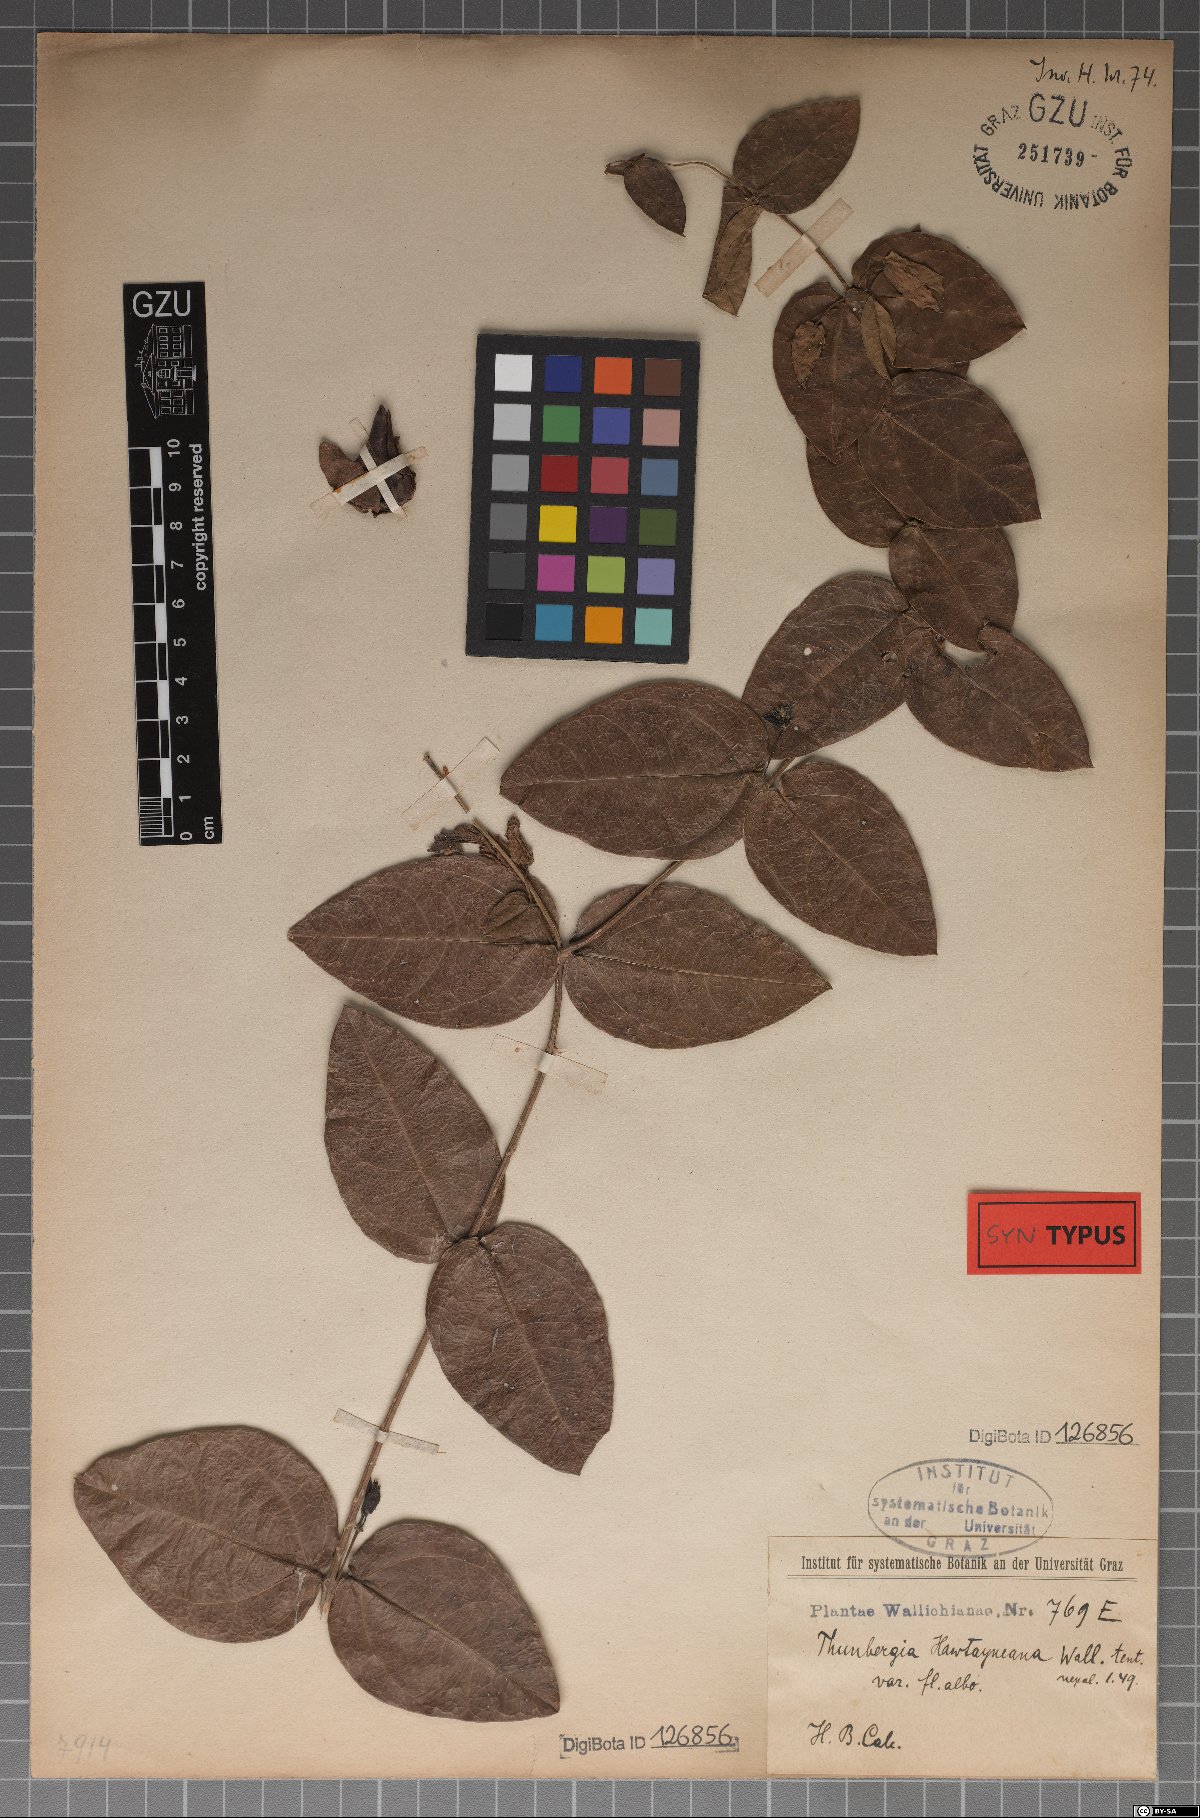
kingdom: Plantae
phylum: Tracheophyta
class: Magnoliopsida
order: Lamiales
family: Acanthaceae
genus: Meyenia
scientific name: Meyenia hawtayneana
